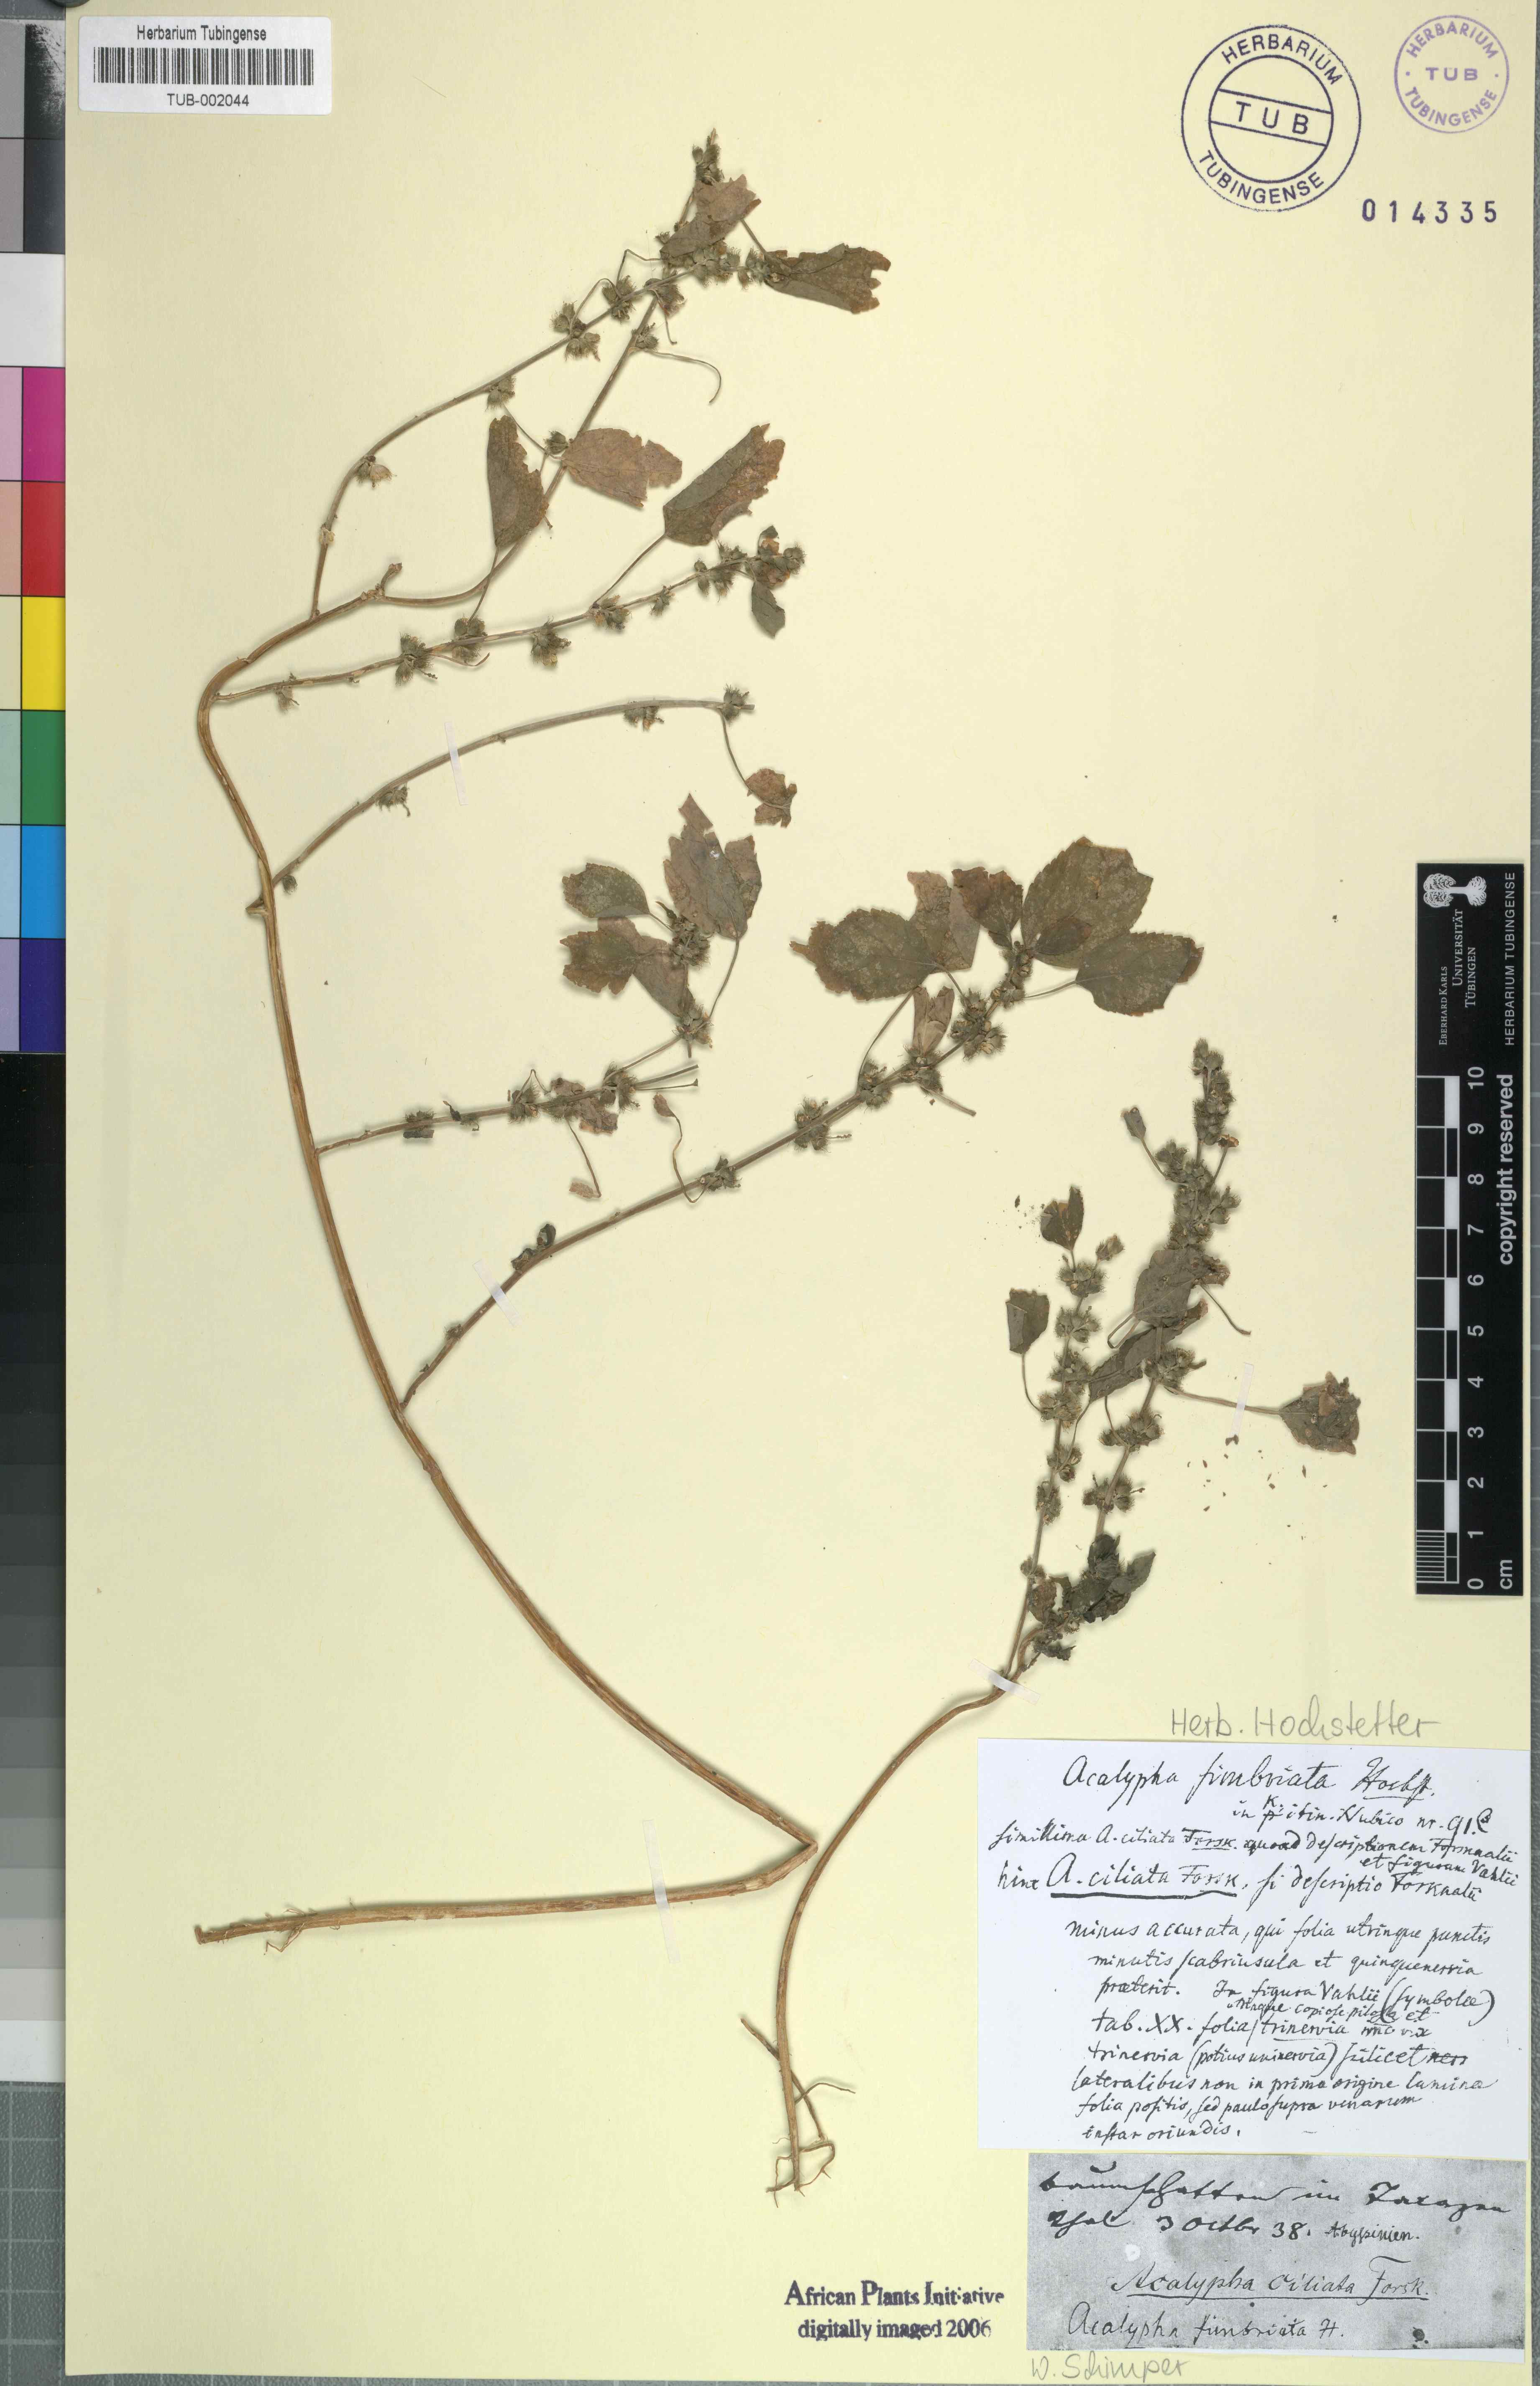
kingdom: Plantae
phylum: Tracheophyta
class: Magnoliopsida
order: Malpighiales
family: Euphorbiaceae
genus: Acalypha
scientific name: Acalypha fimbriata
